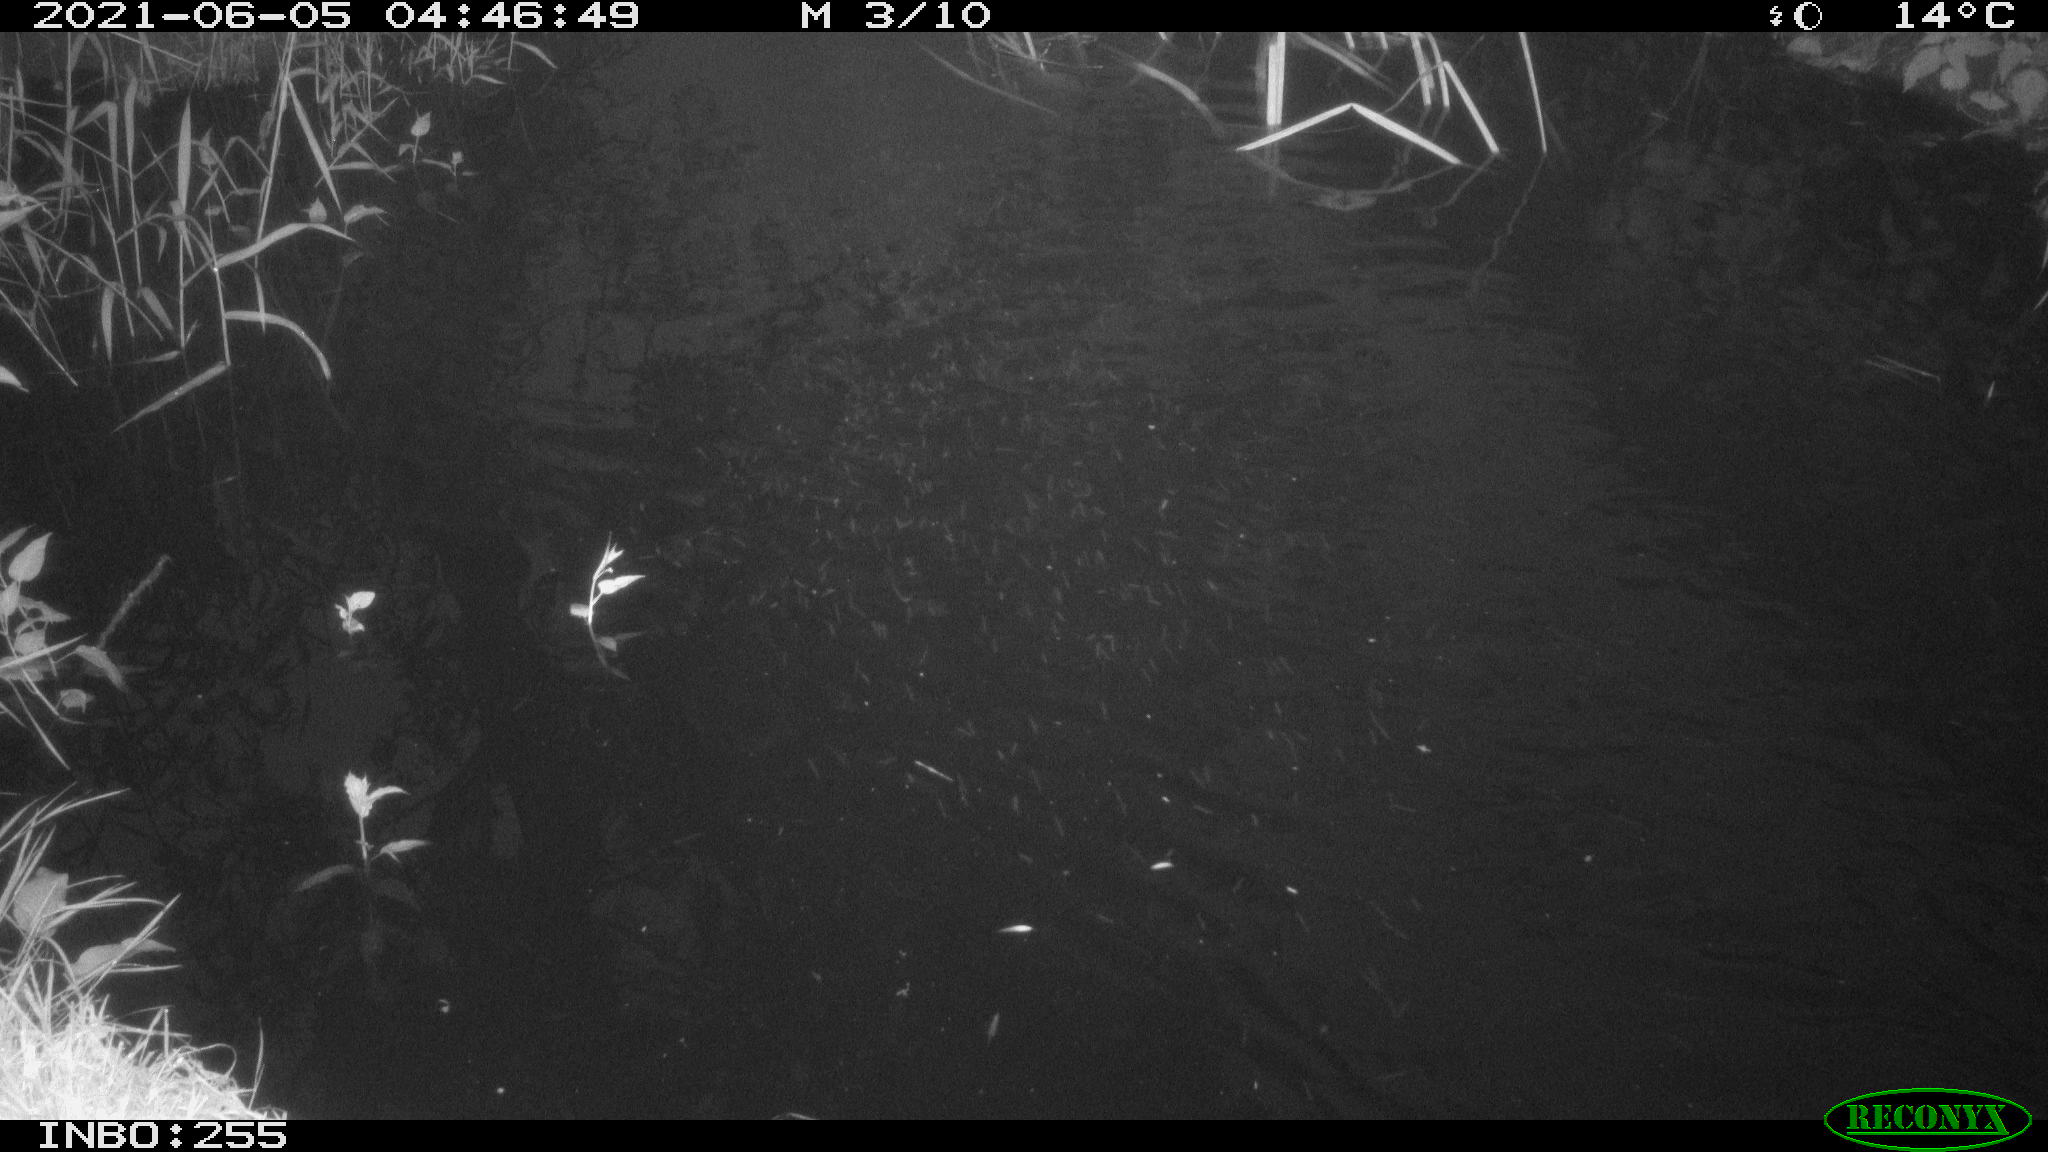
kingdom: Animalia
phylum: Chordata
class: Aves
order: Anseriformes
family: Anatidae
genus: Anas
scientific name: Anas platyrhynchos
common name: Mallard
